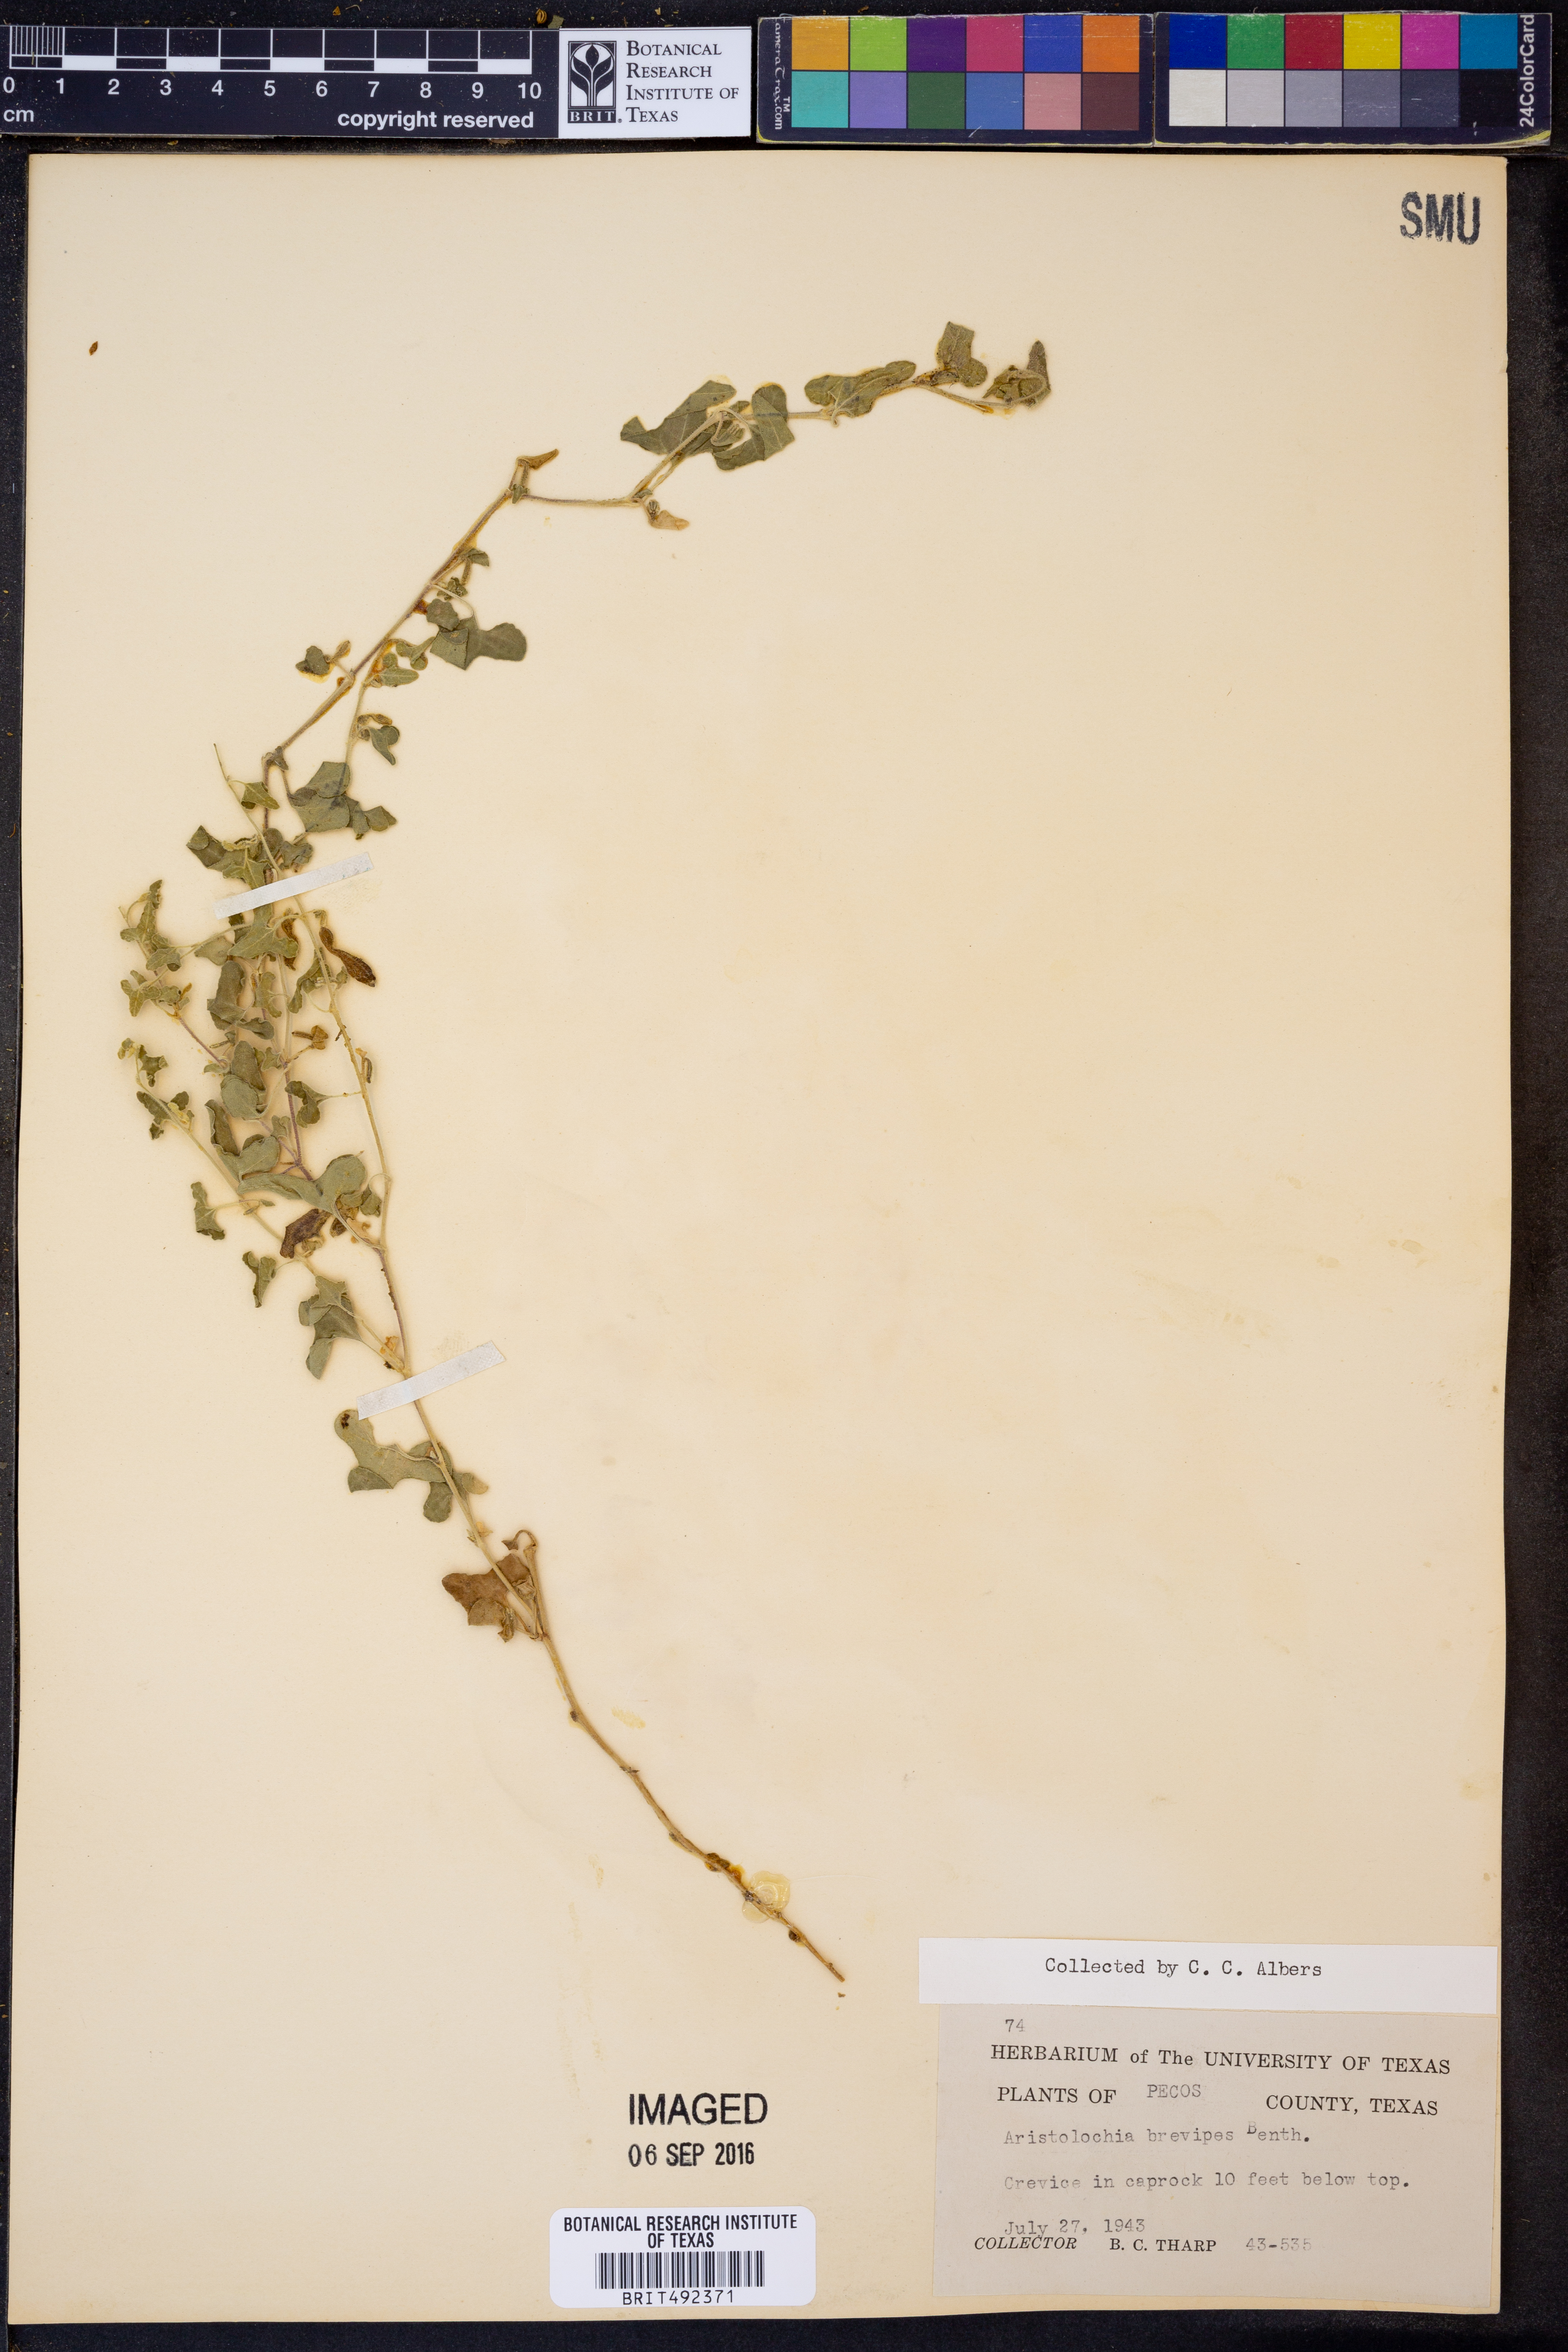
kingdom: Plantae
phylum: Tracheophyta
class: Magnoliopsida
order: Piperales
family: Aristolochiaceae
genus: Aristolochia
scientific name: Aristolochia brevipes
